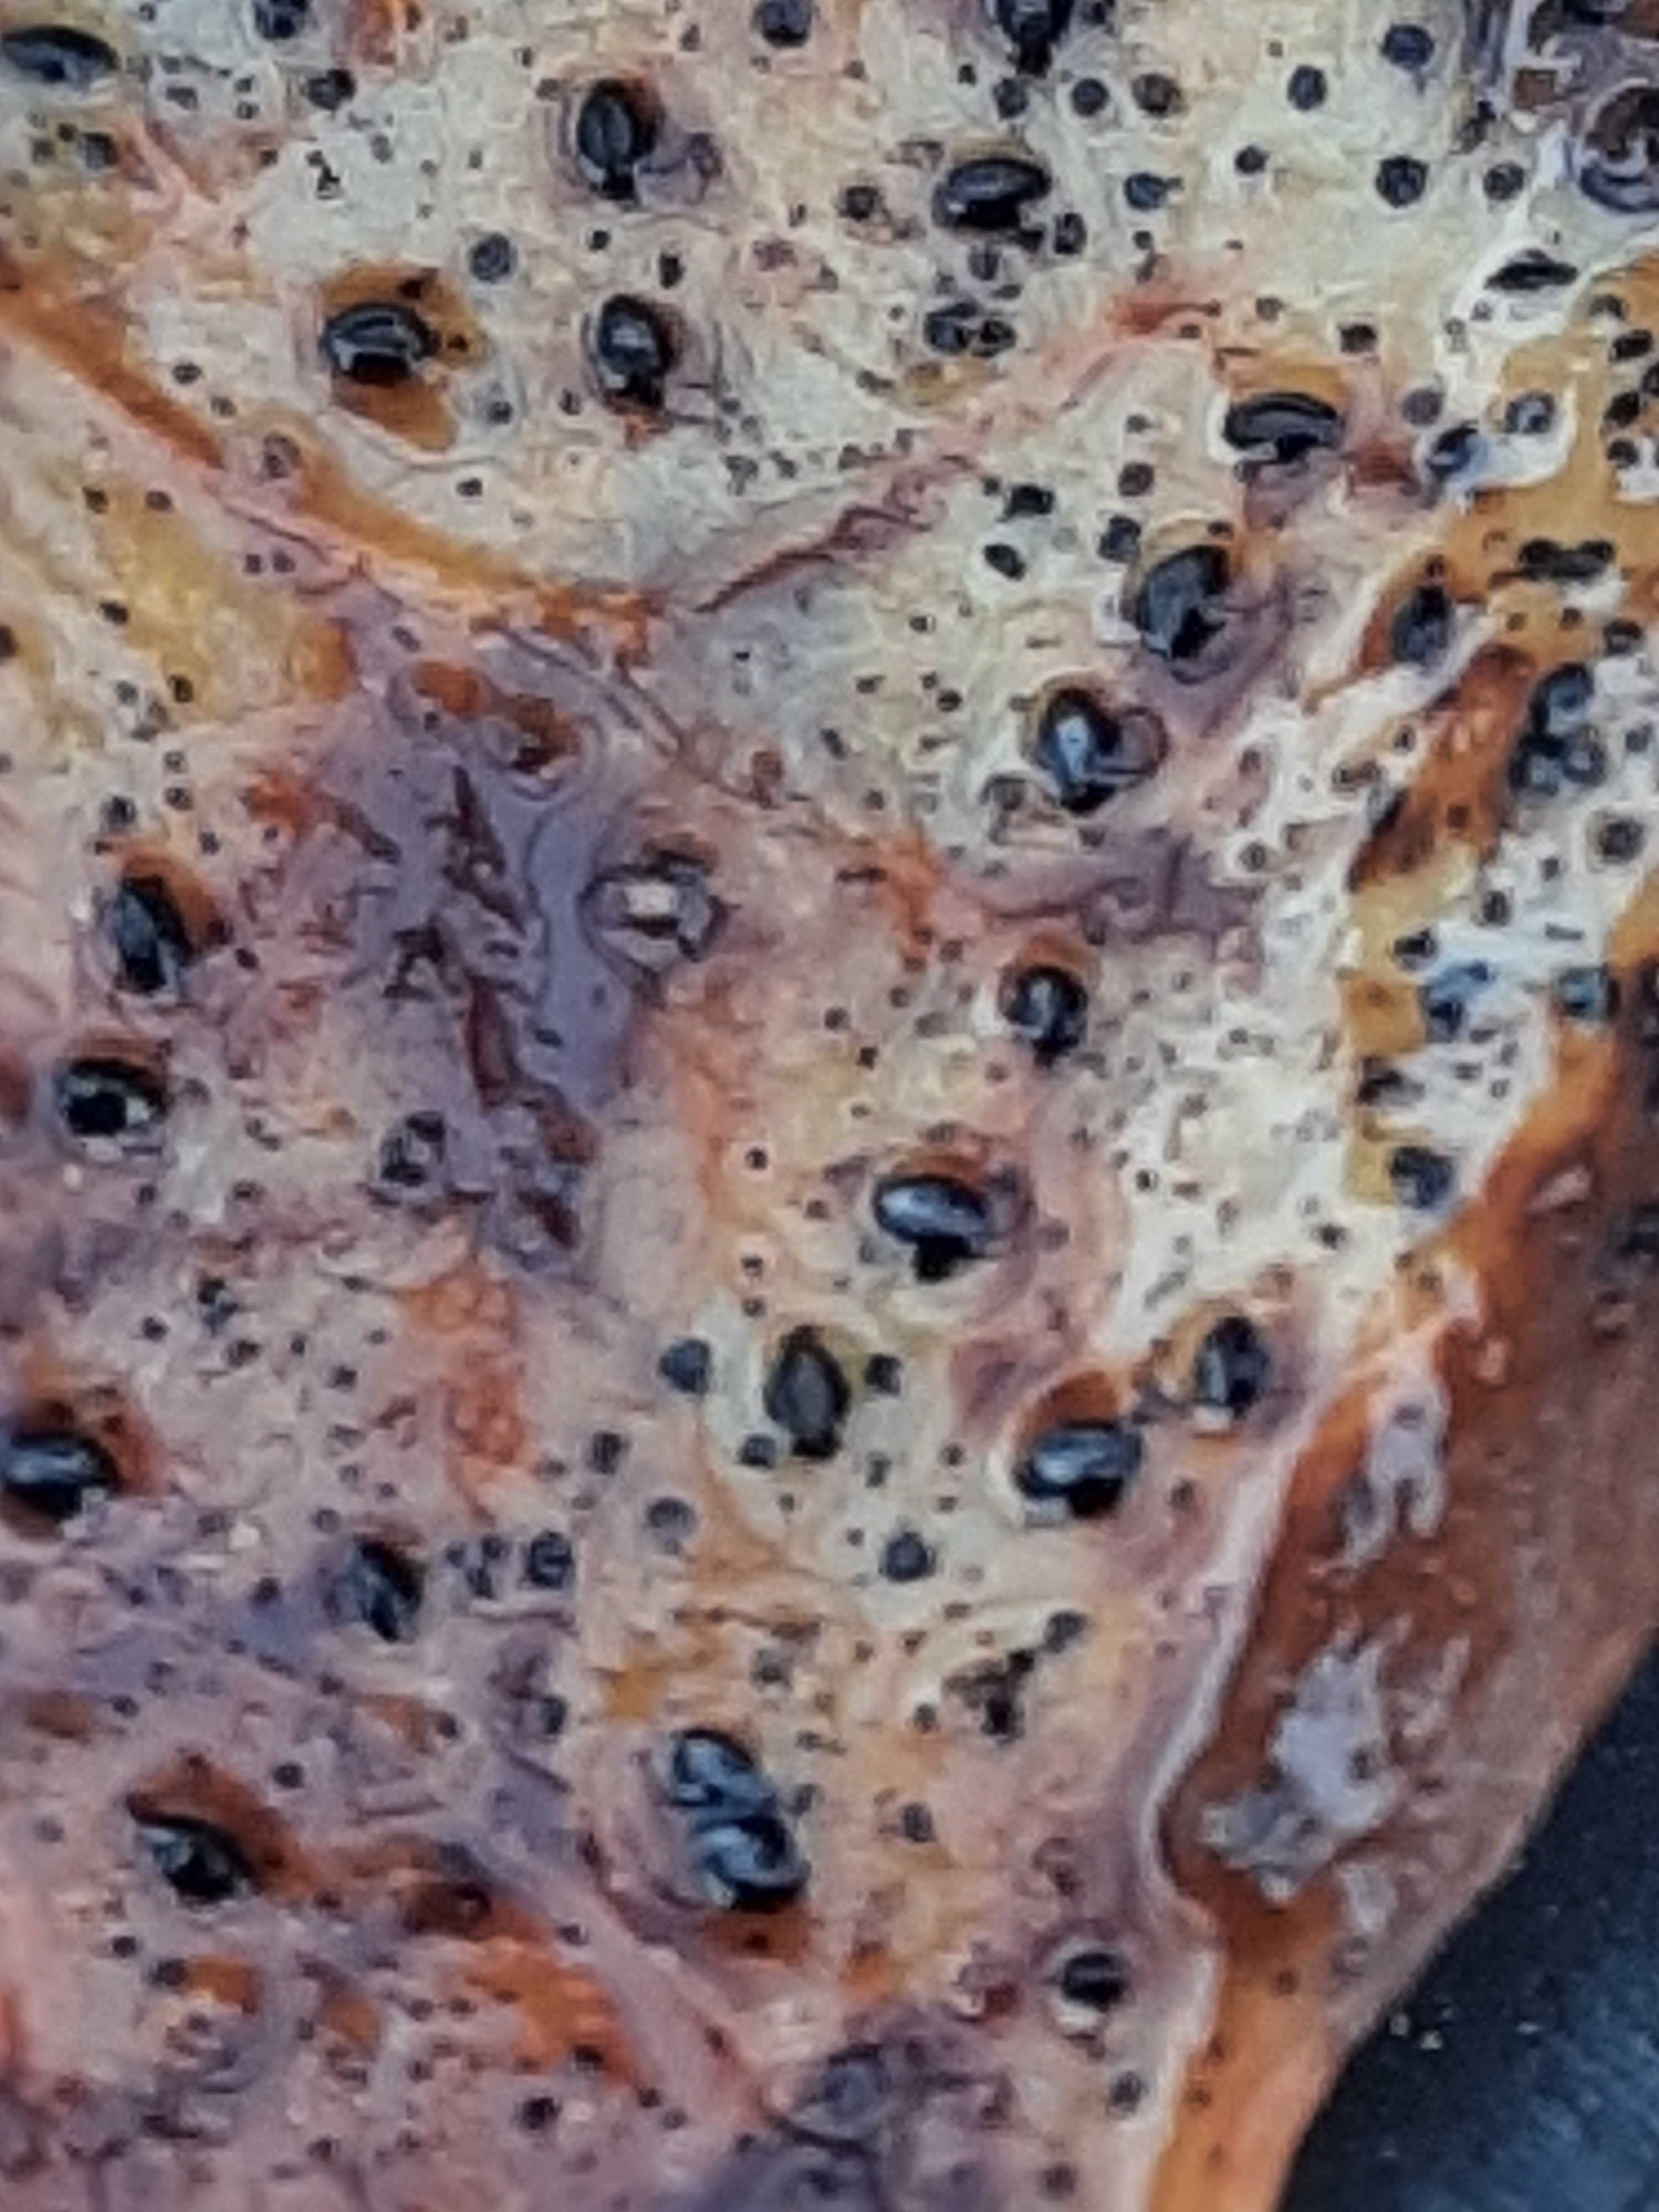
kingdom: Fungi
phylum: Ascomycota
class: Leotiomycetes
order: Helotiales
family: Cenangiaceae
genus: Trochila
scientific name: Trochila craterium
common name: vedbend-lågskive
